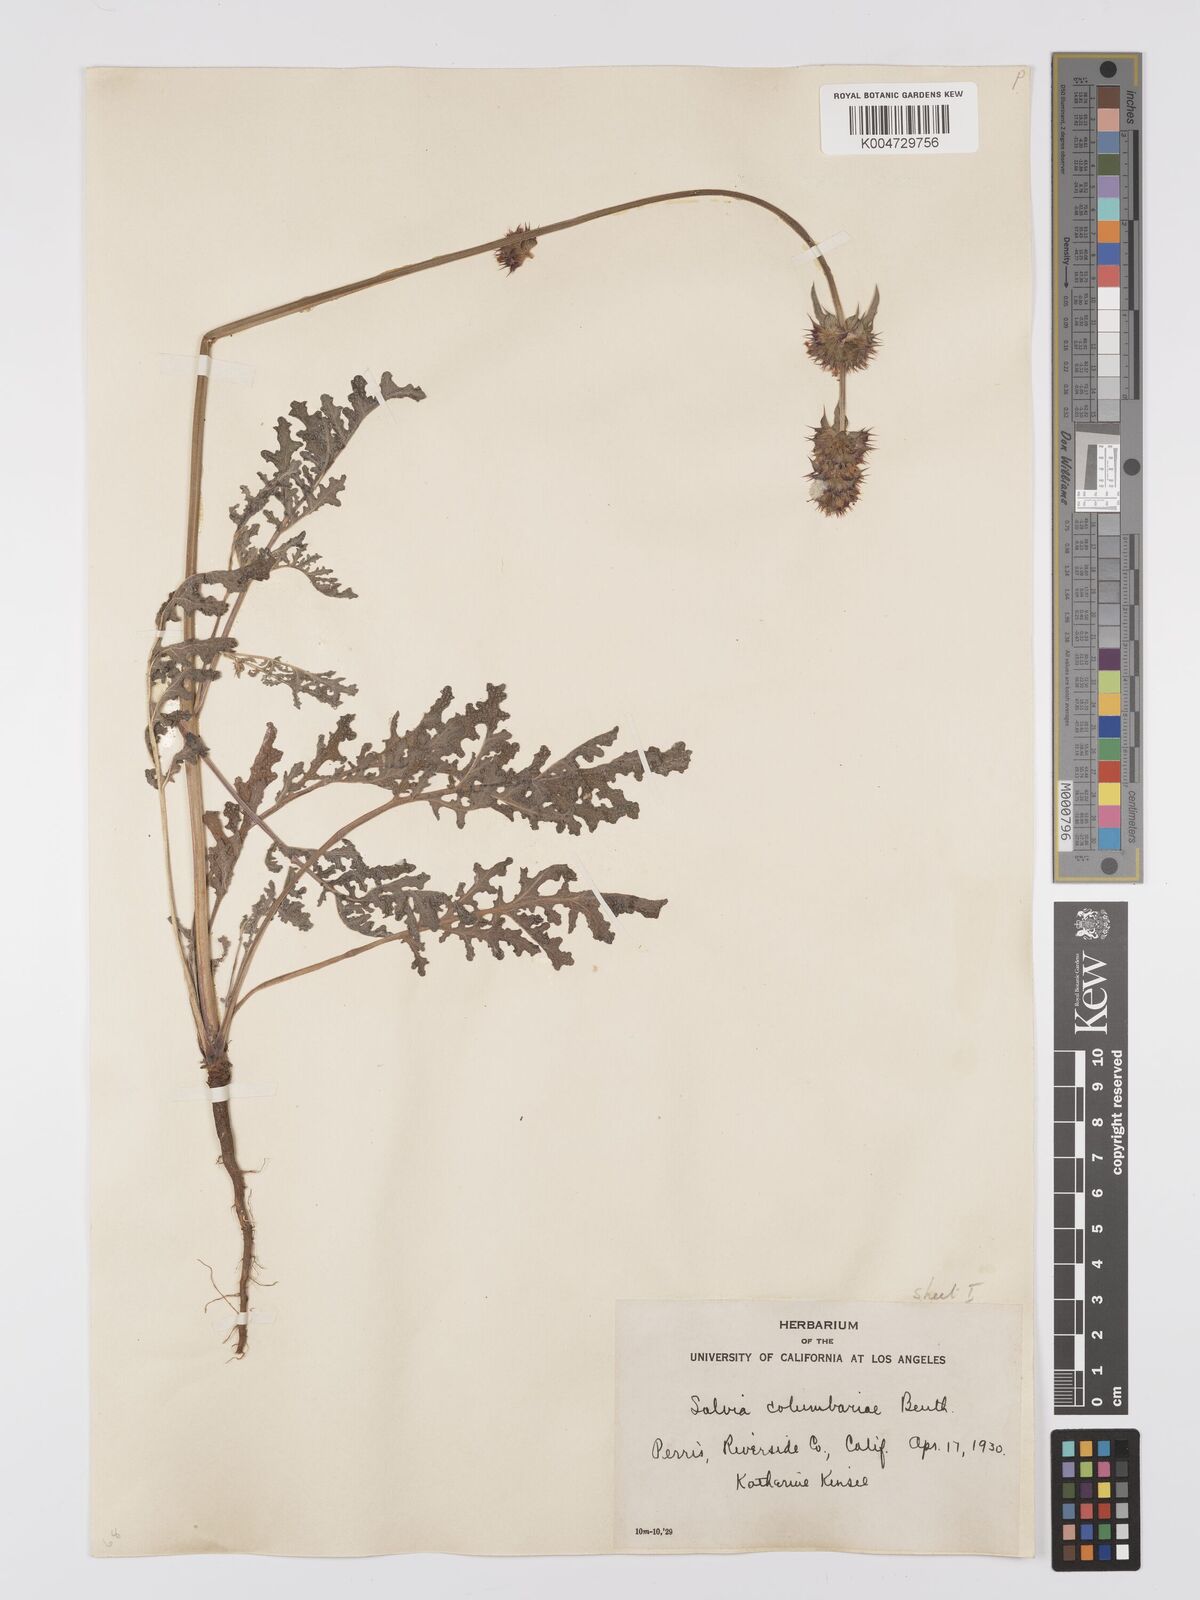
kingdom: Plantae
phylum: Tracheophyta
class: Magnoliopsida
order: Lamiales
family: Lamiaceae
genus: Salvia
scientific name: Salvia columbariae
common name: Chia
